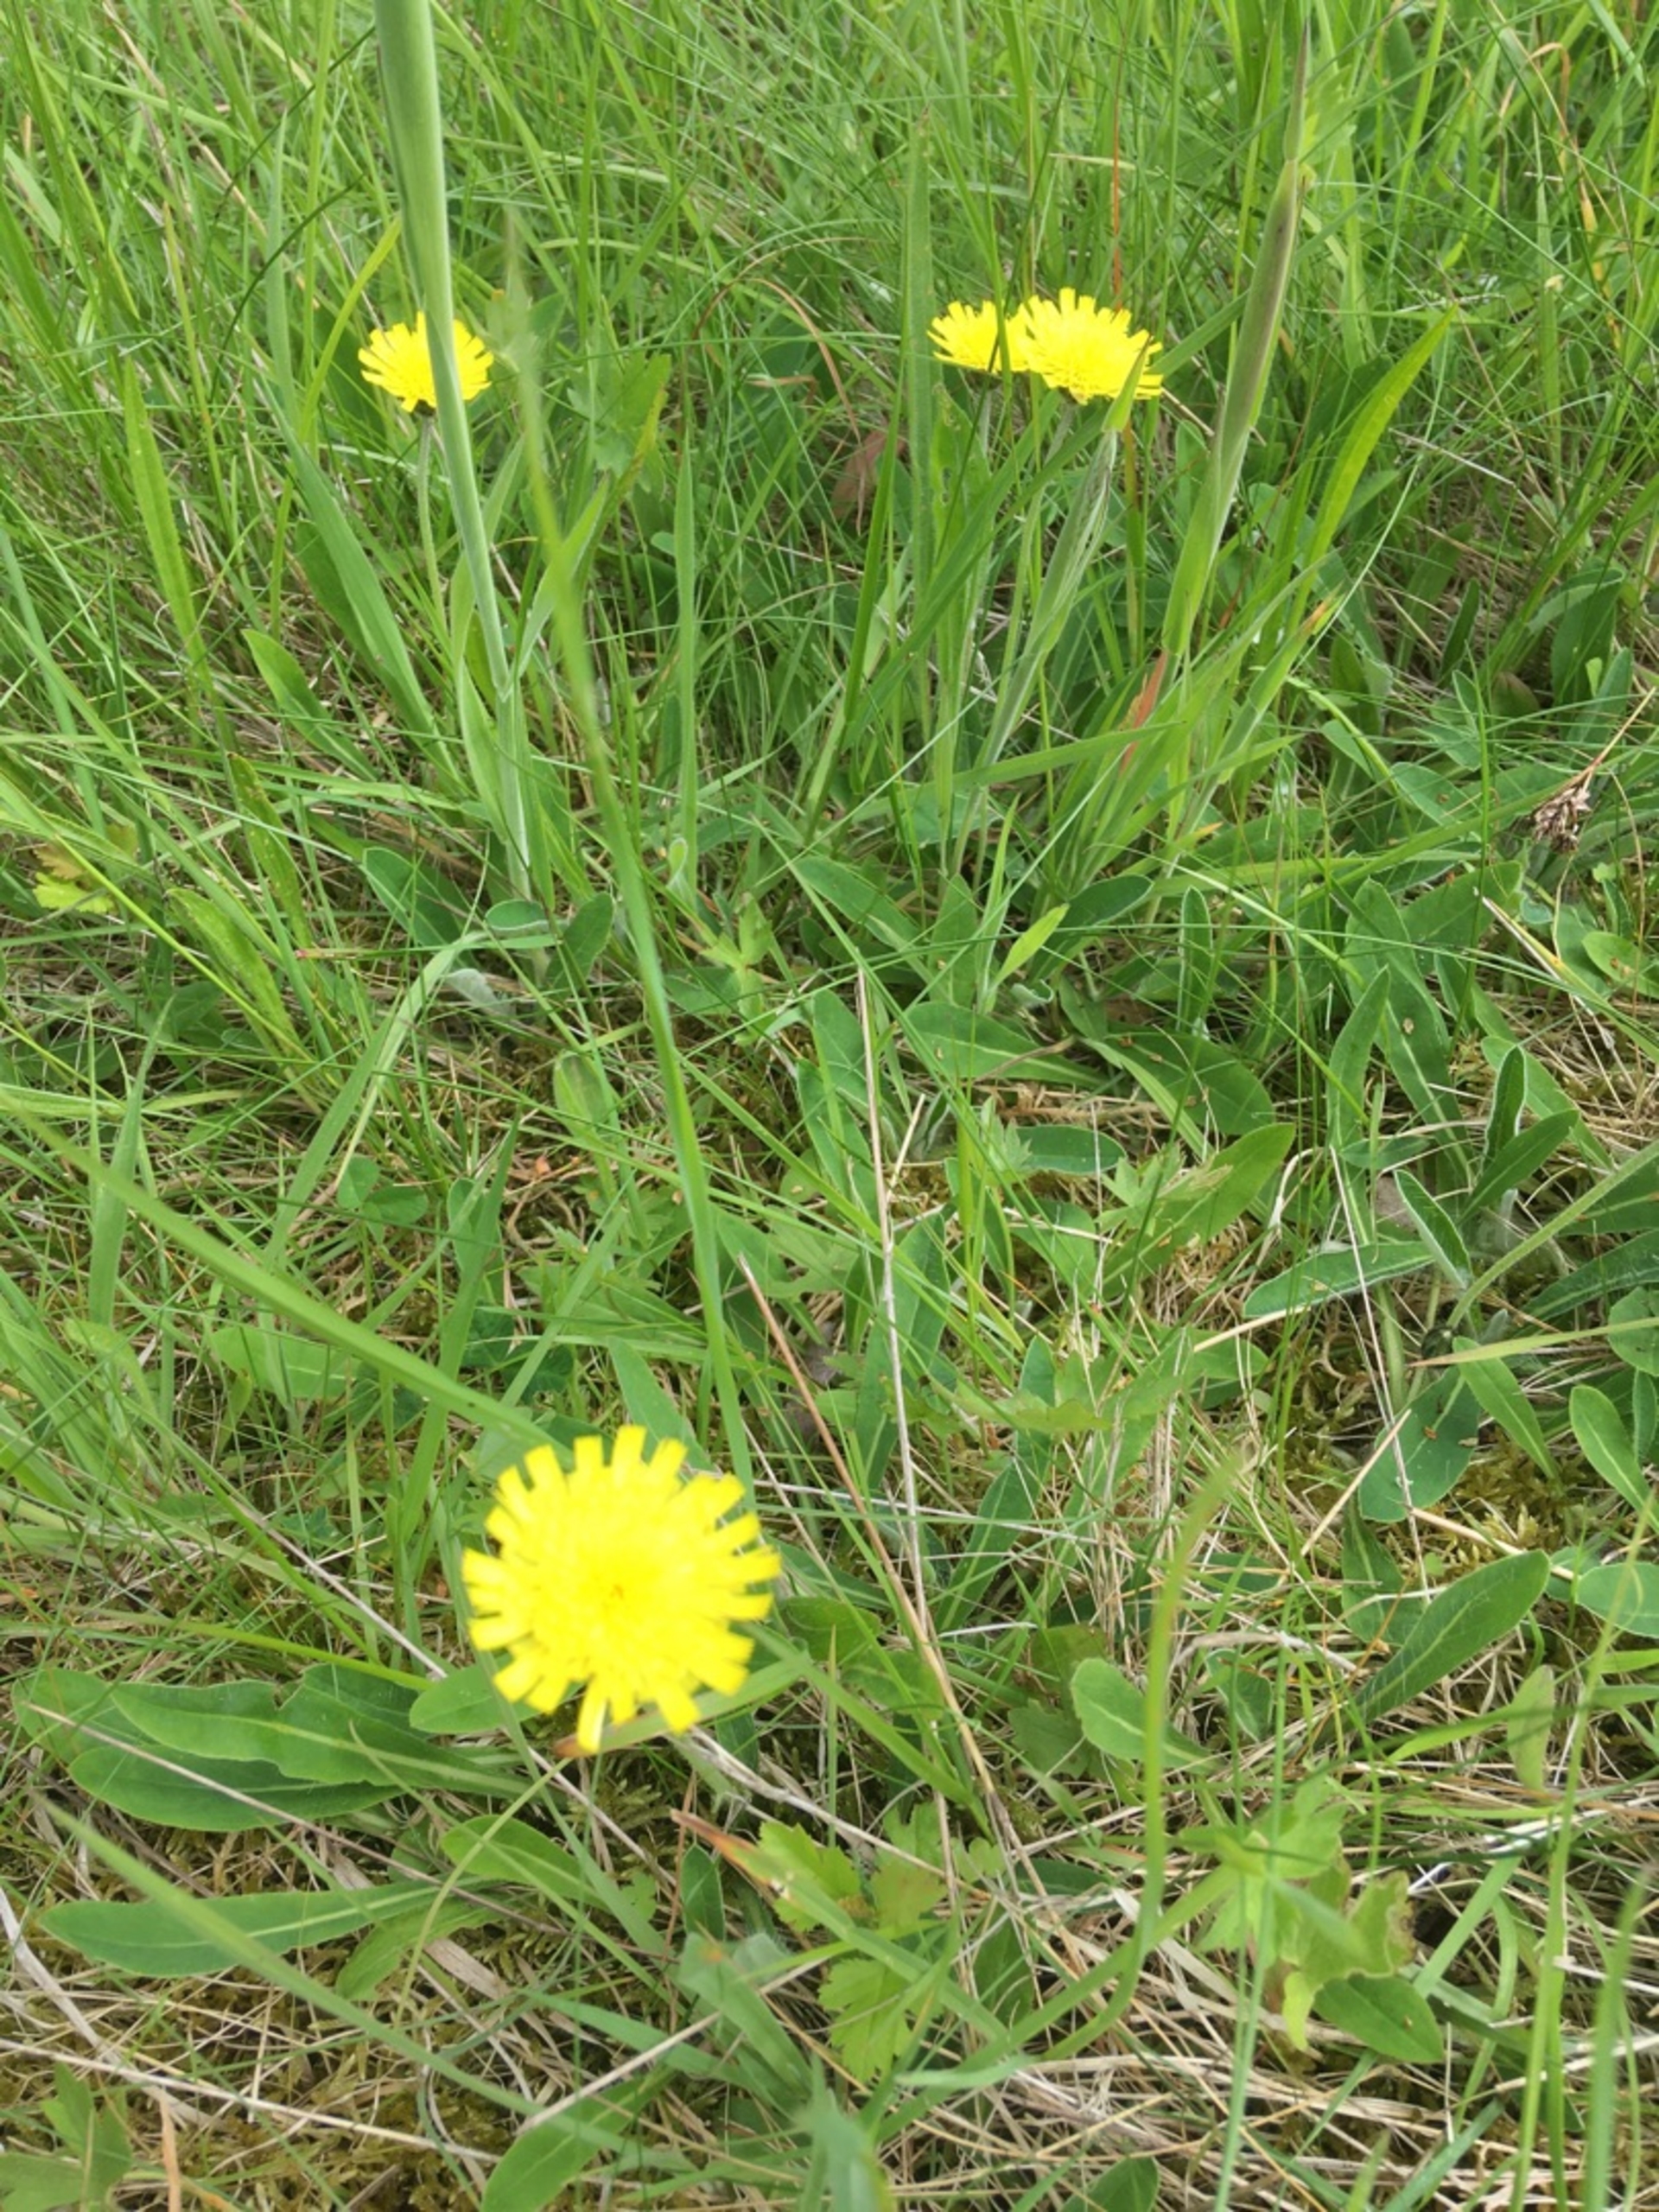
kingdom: Plantae
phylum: Tracheophyta
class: Magnoliopsida
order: Asterales
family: Asteraceae
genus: Pilosella
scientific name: Pilosella officinarum
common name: Håret høgeurt
